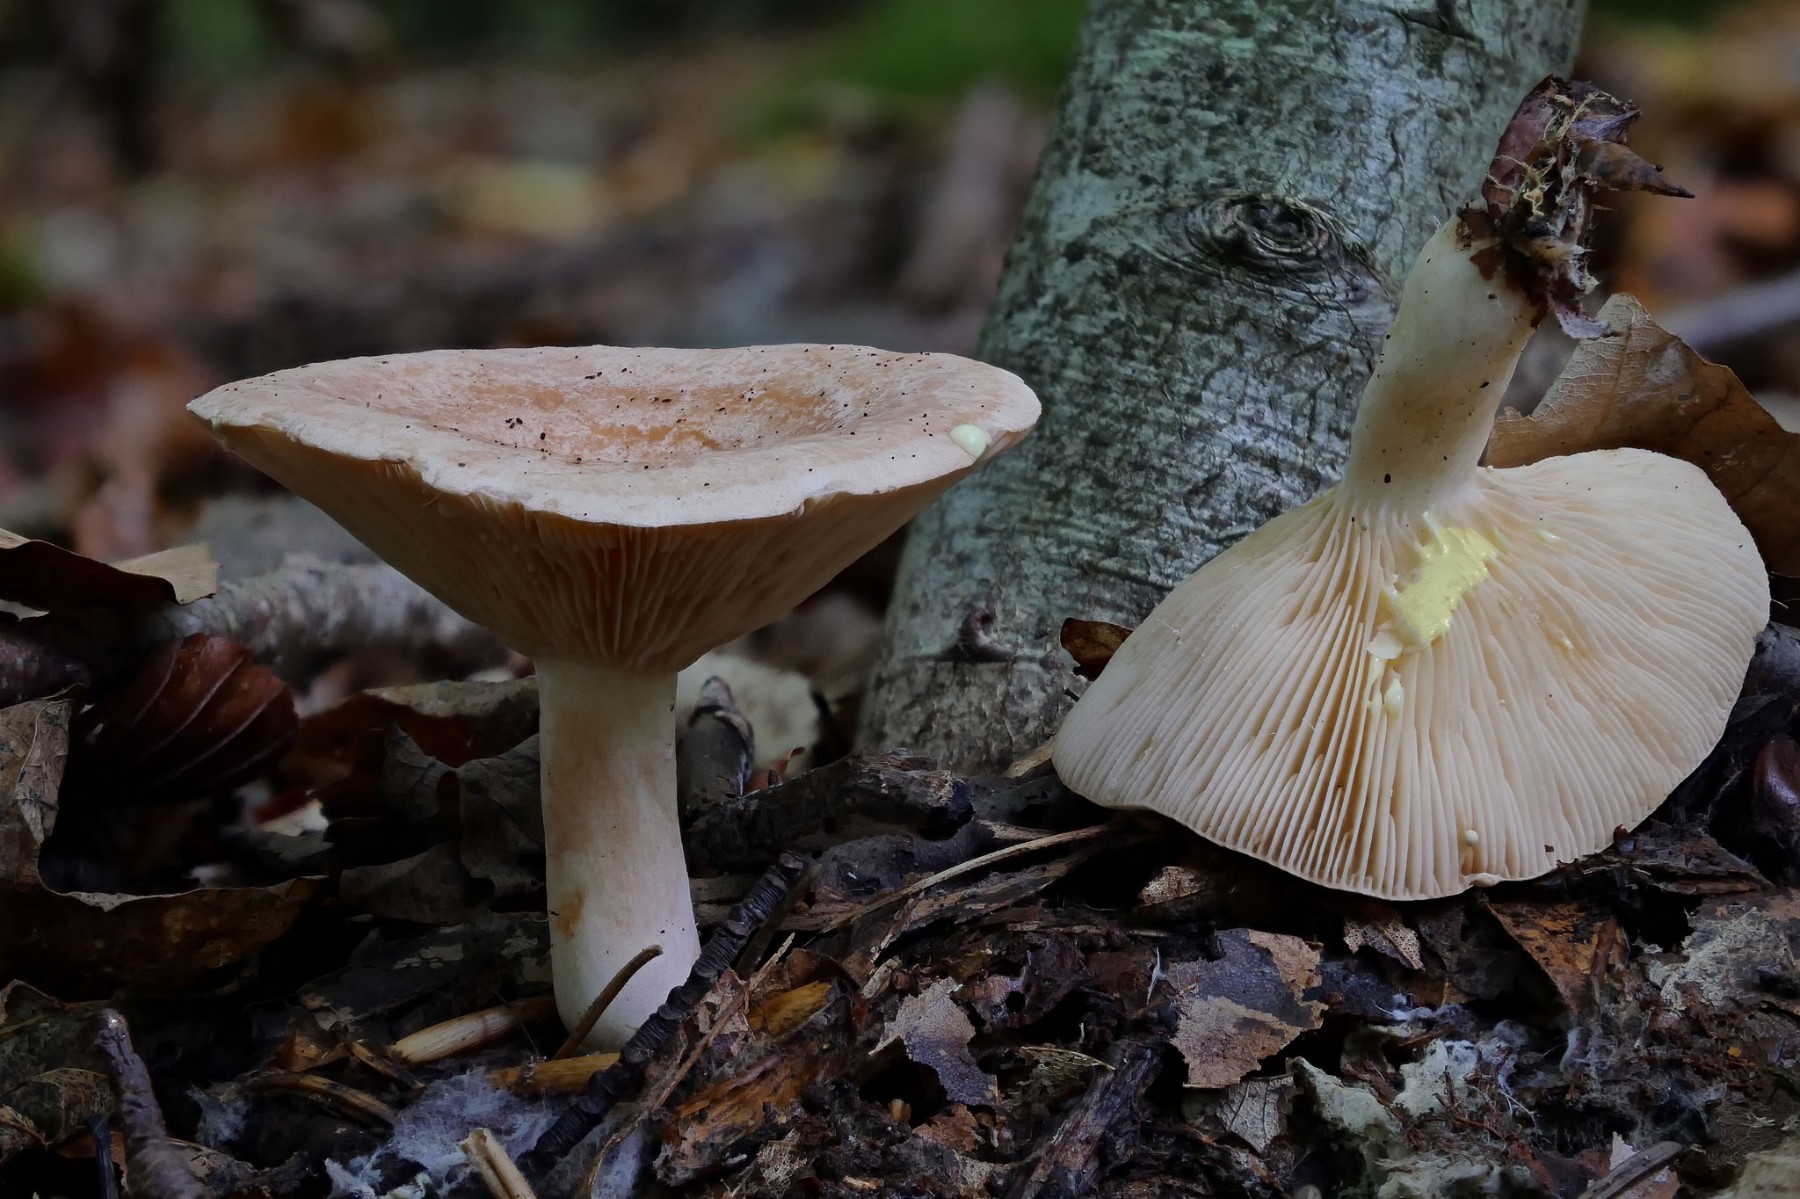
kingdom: Fungi
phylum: Basidiomycota
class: Agaricomycetes
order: Russulales
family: Russulaceae
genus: Lactarius
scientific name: Lactarius chrysorrheus
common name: svovlmælket mælkehat
